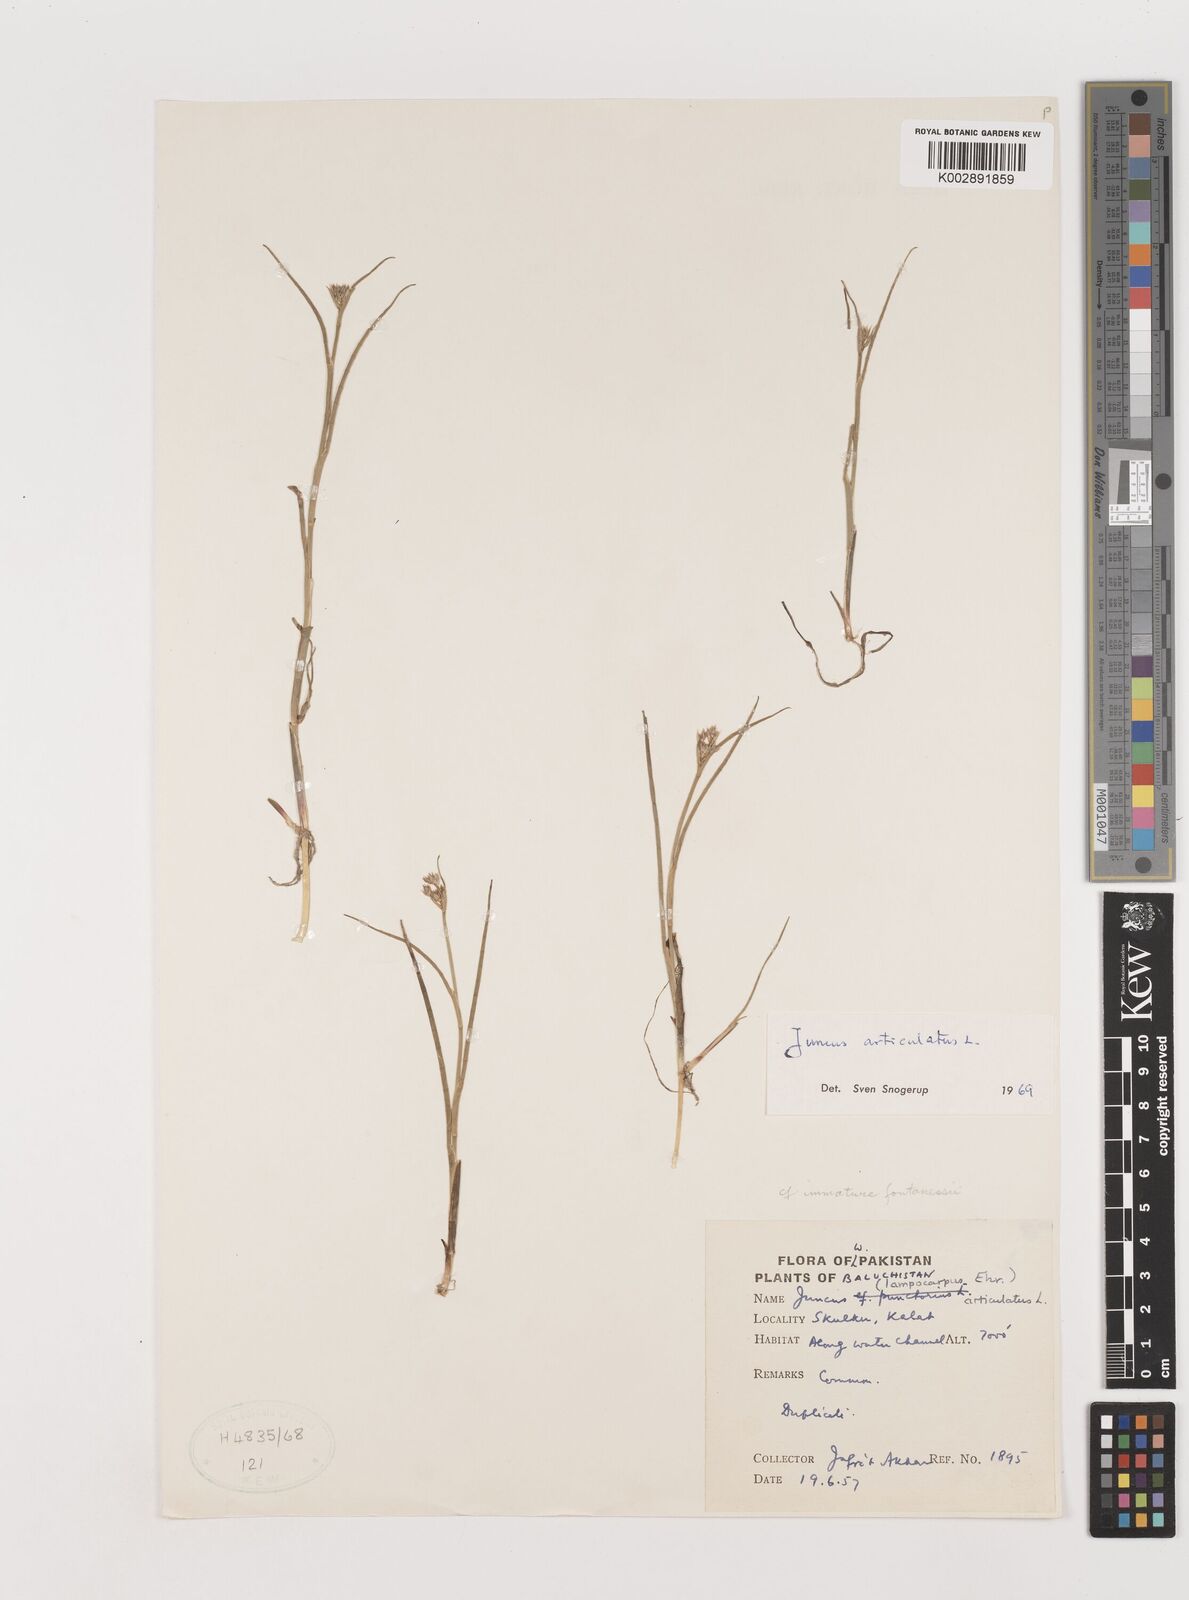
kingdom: Plantae
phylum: Tracheophyta
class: Liliopsida
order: Poales
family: Juncaceae
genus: Juncus
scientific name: Juncus articulatus
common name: Jointed rush
